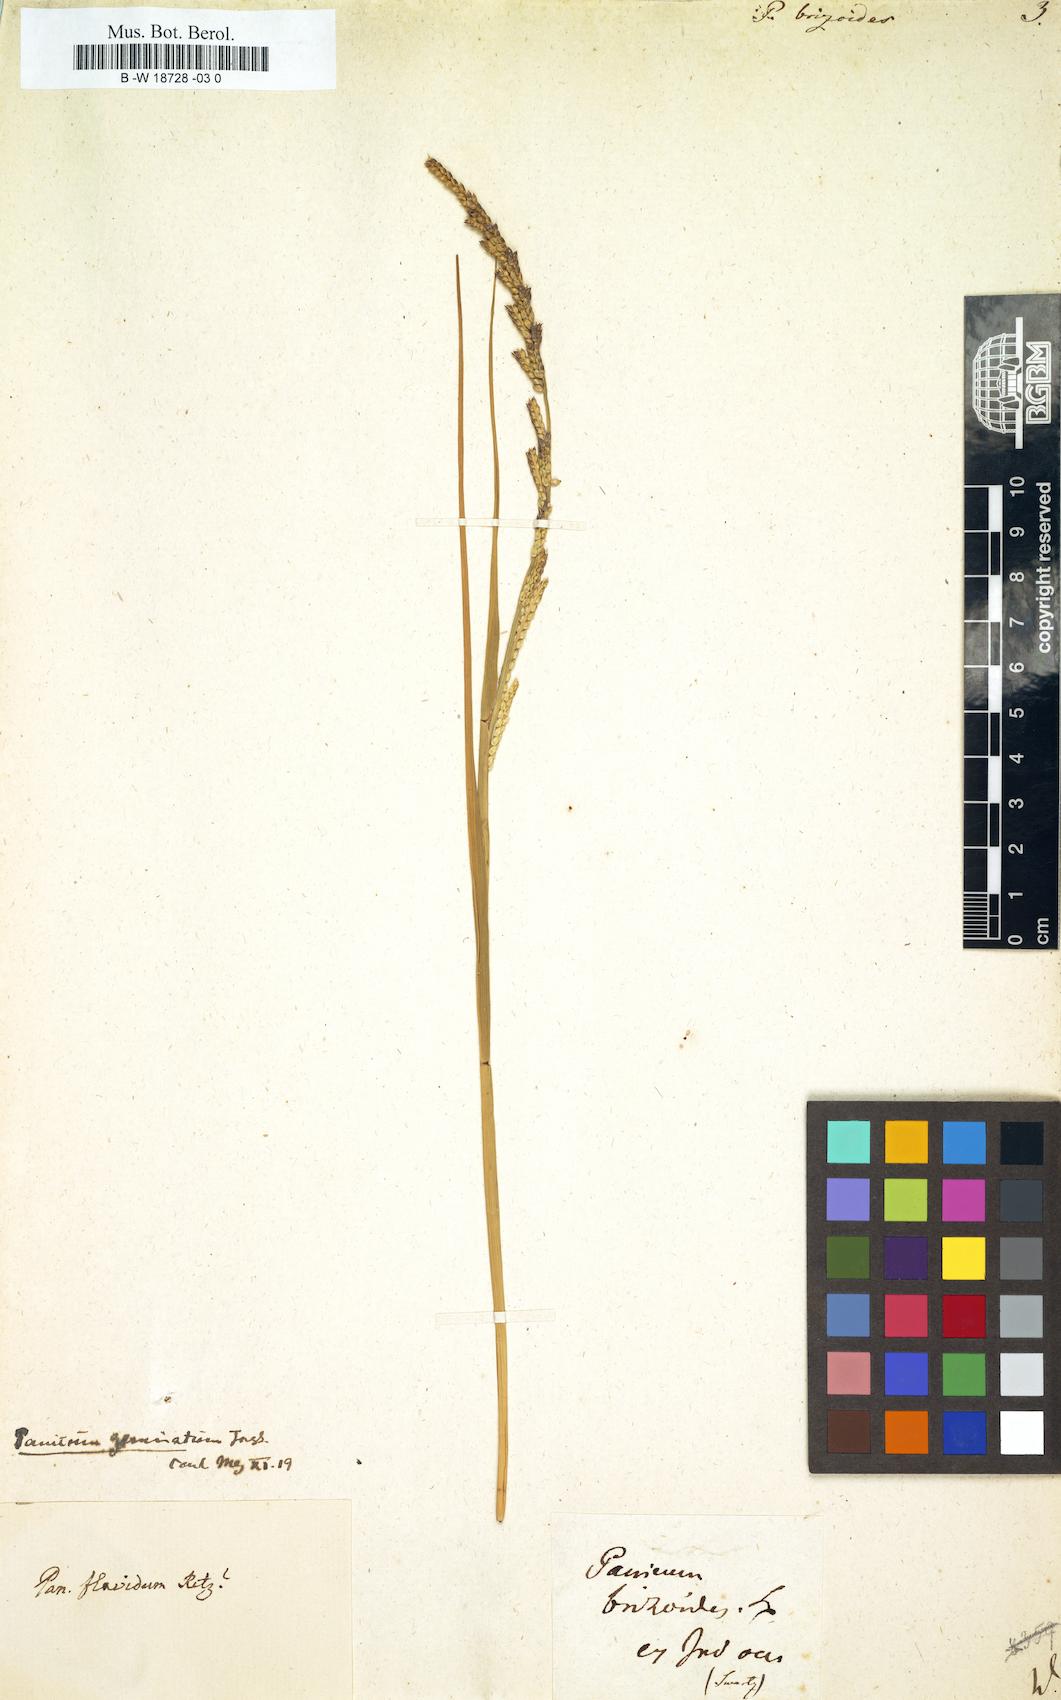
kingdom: Plantae
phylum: Tracheophyta
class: Liliopsida
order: Poales
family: Poaceae
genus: Setaria
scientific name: Setaria flavida
